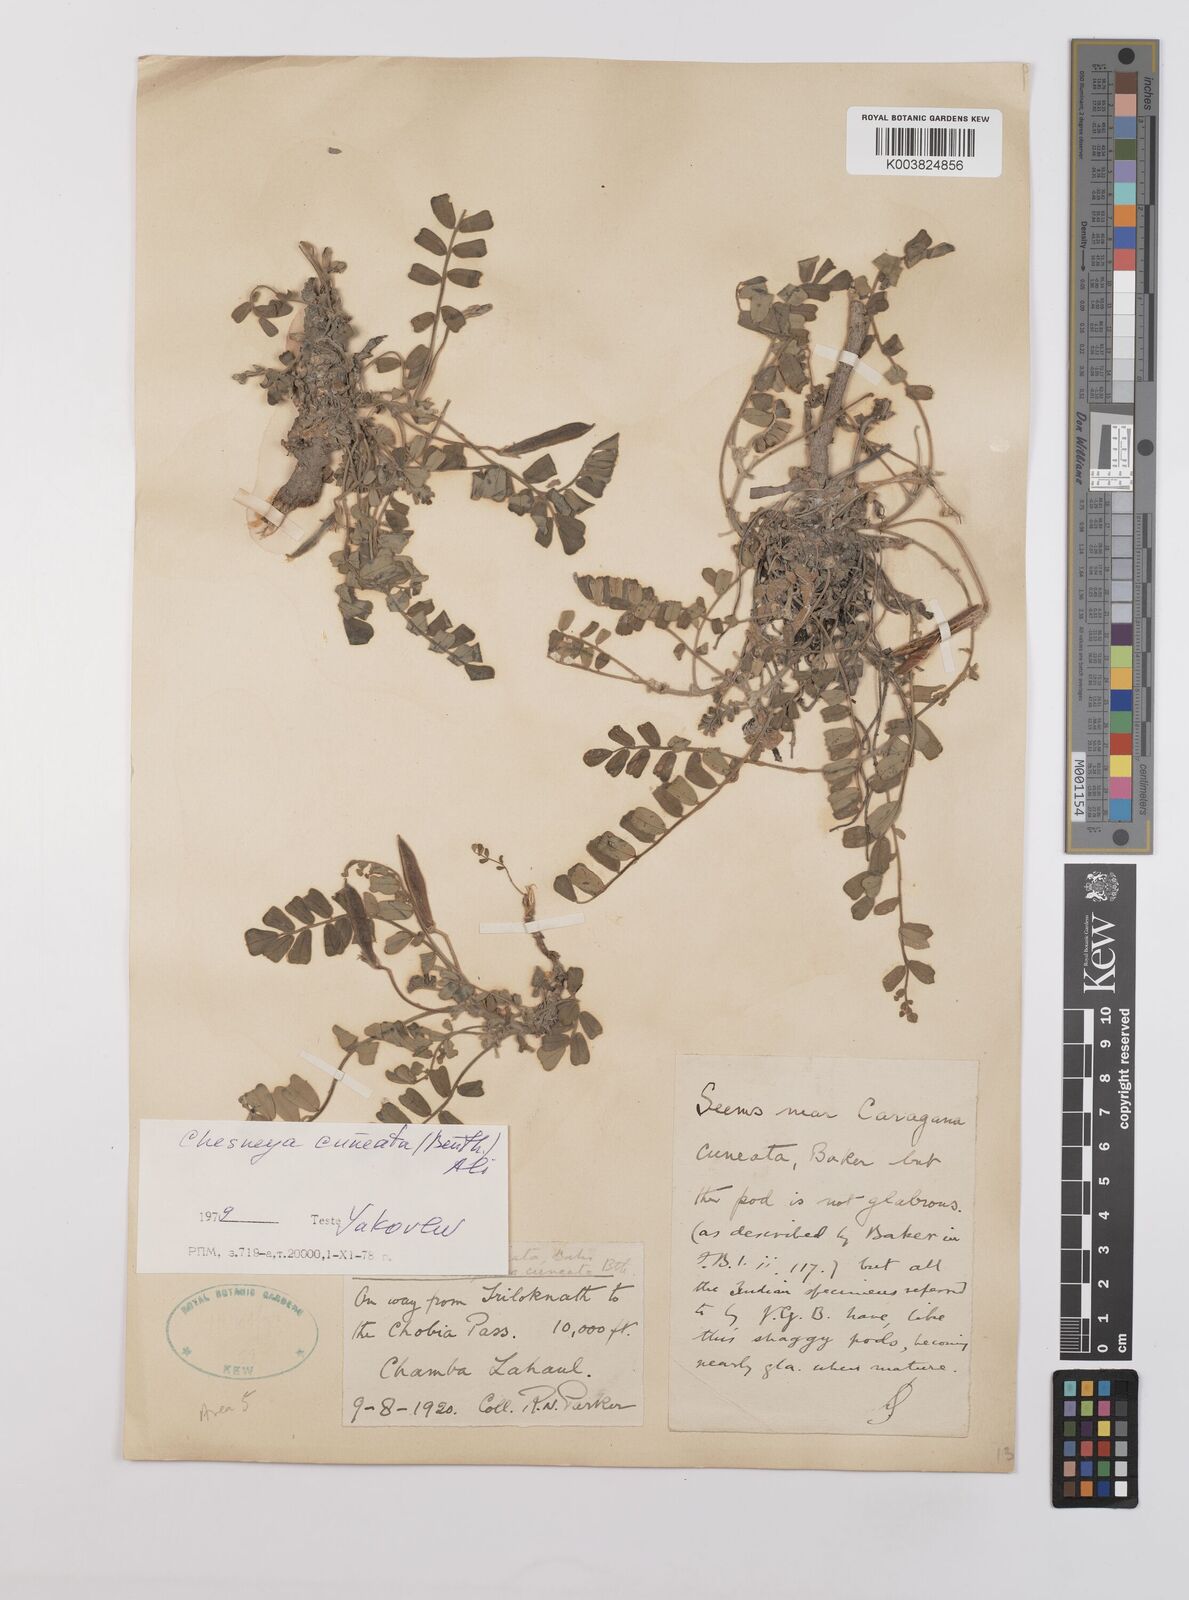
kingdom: Plantae
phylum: Tracheophyta
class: Magnoliopsida
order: Fabales
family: Fabaceae
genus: Chesneya
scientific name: Chesneya cuneata
